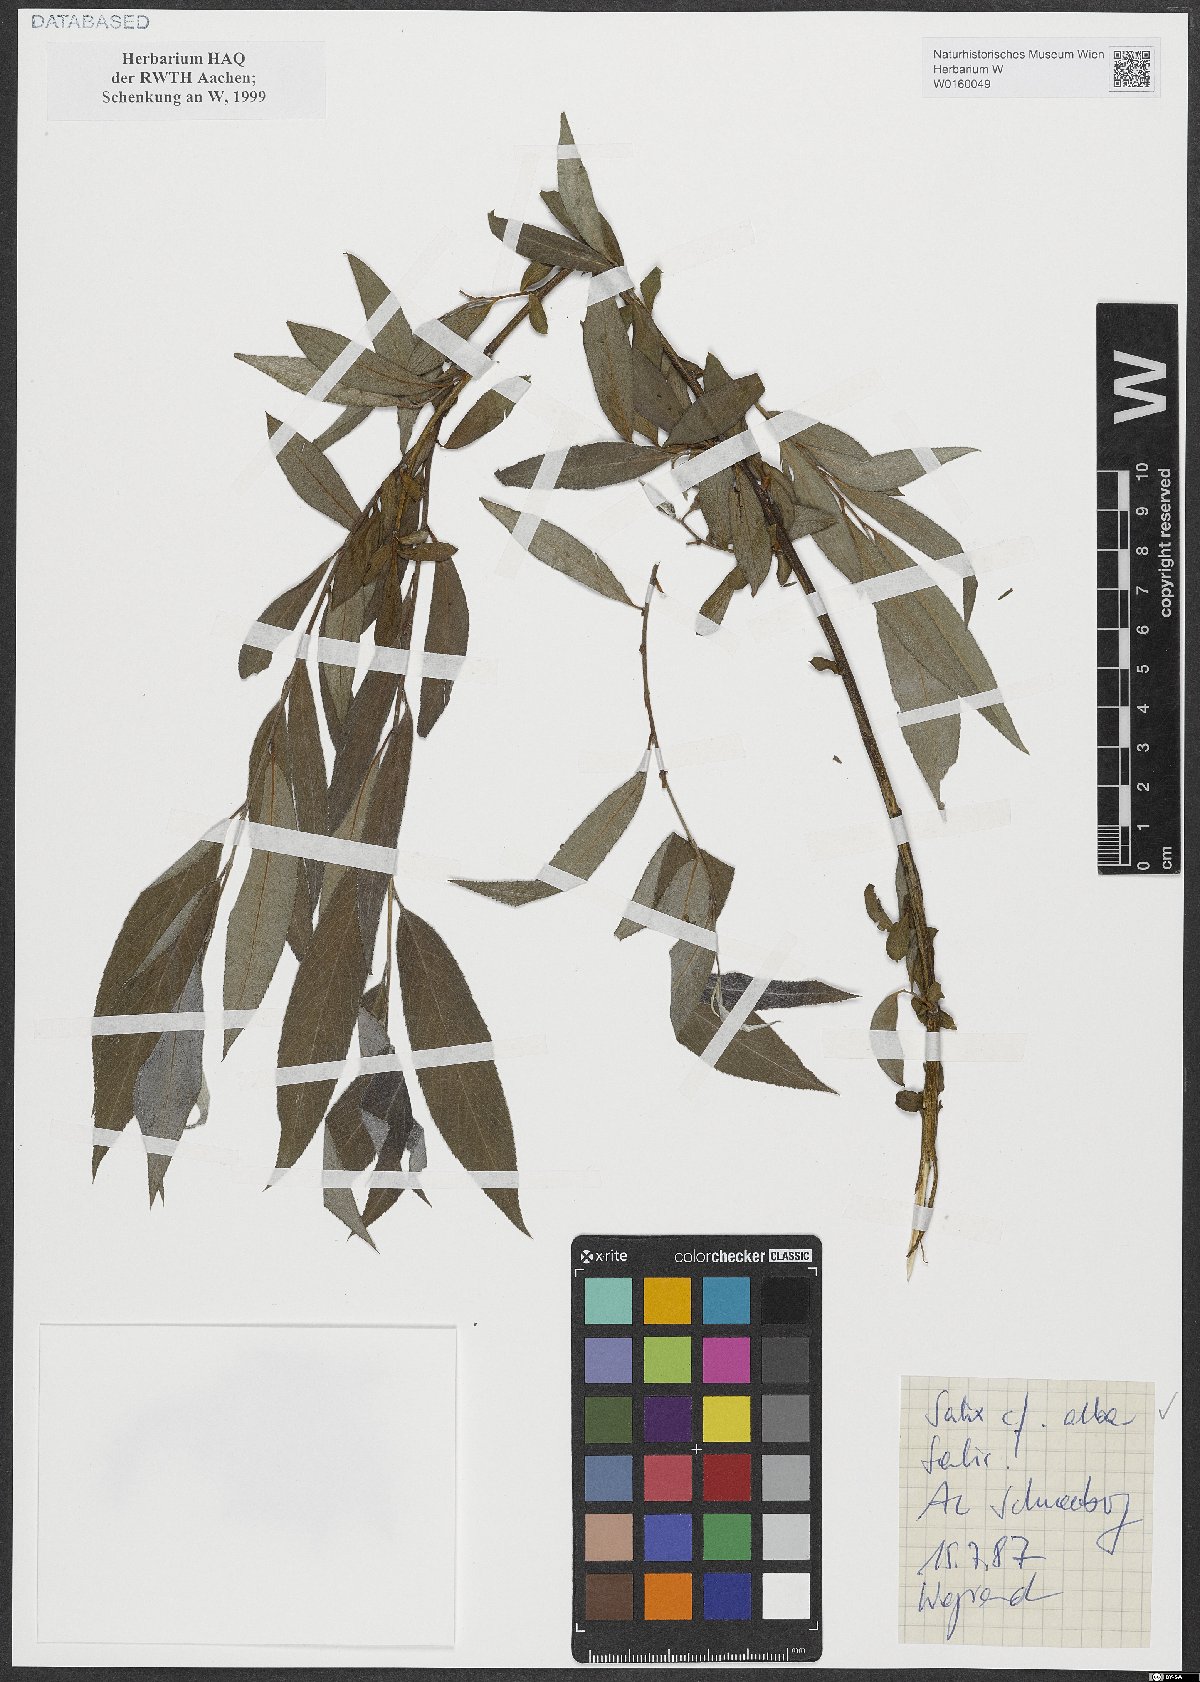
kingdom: Plantae
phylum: Tracheophyta
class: Magnoliopsida
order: Malpighiales
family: Salicaceae
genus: Salix
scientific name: Salix alba
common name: White willow
